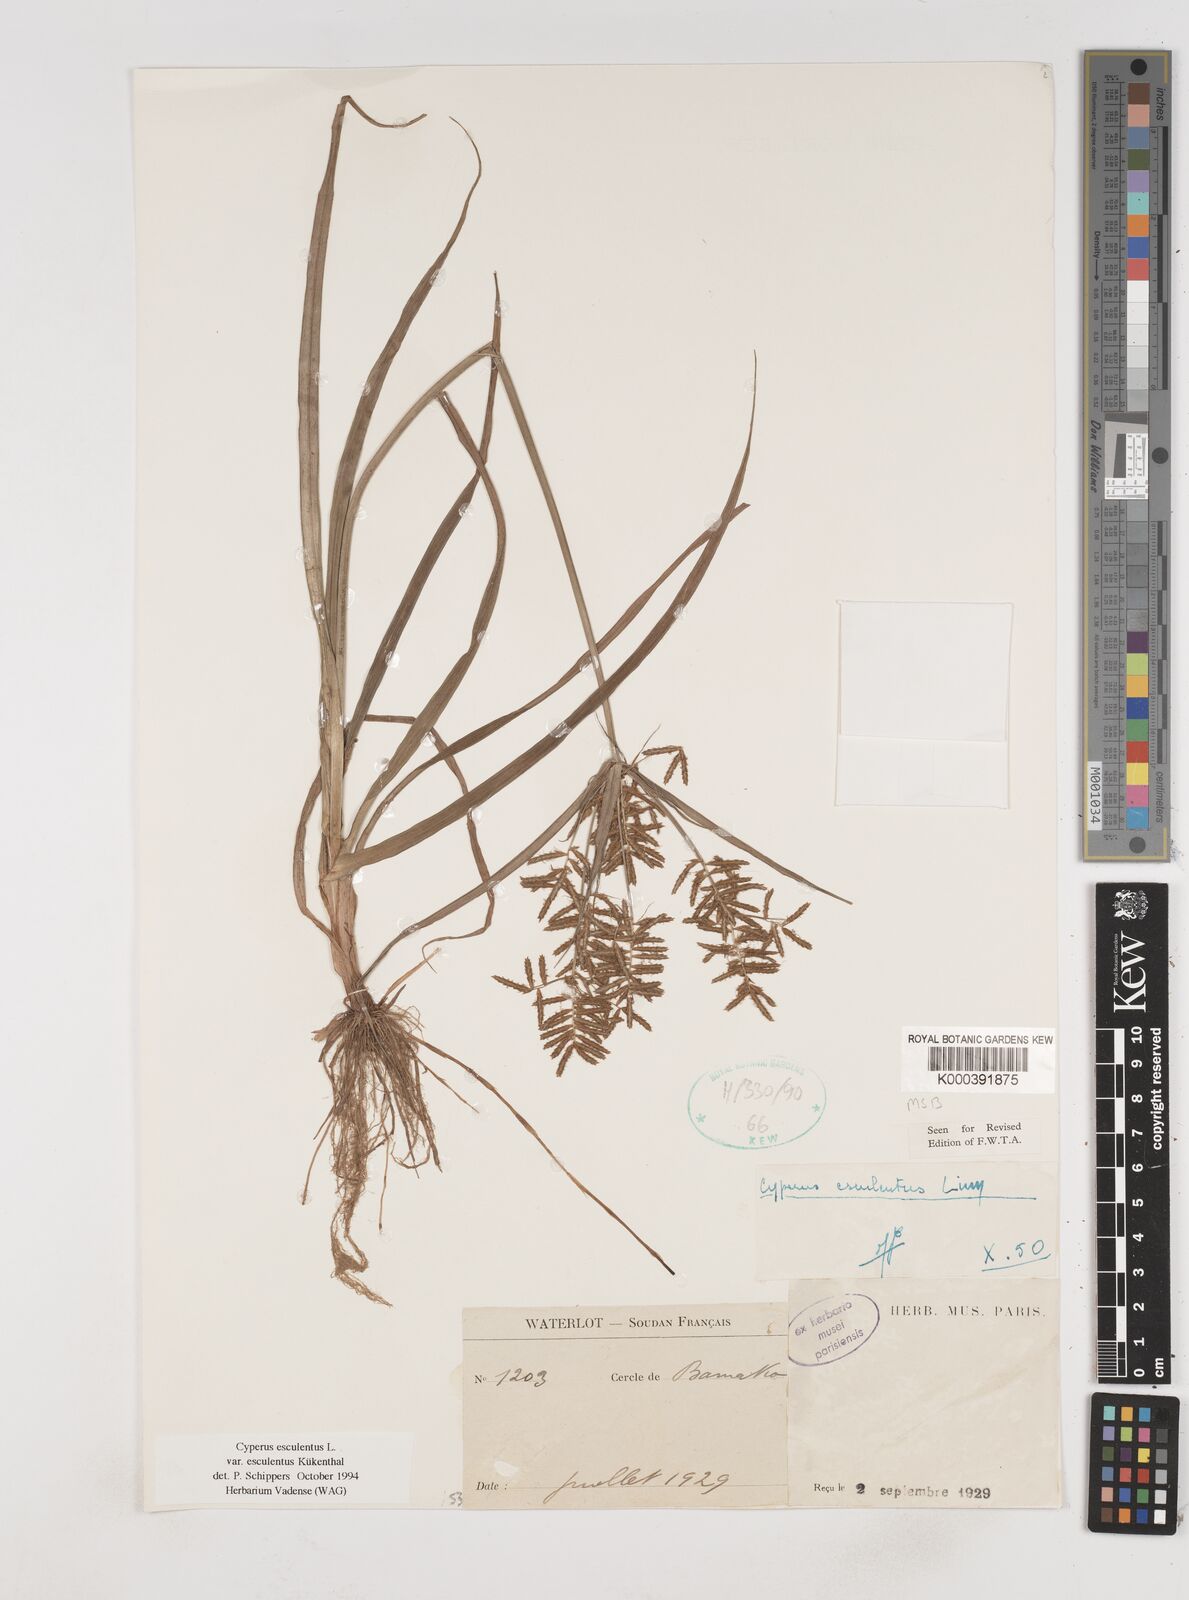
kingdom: Plantae
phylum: Tracheophyta
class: Liliopsida
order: Poales
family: Cyperaceae
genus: Cyperus
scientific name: Cyperus esculentus
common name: Yellow nutsedge
